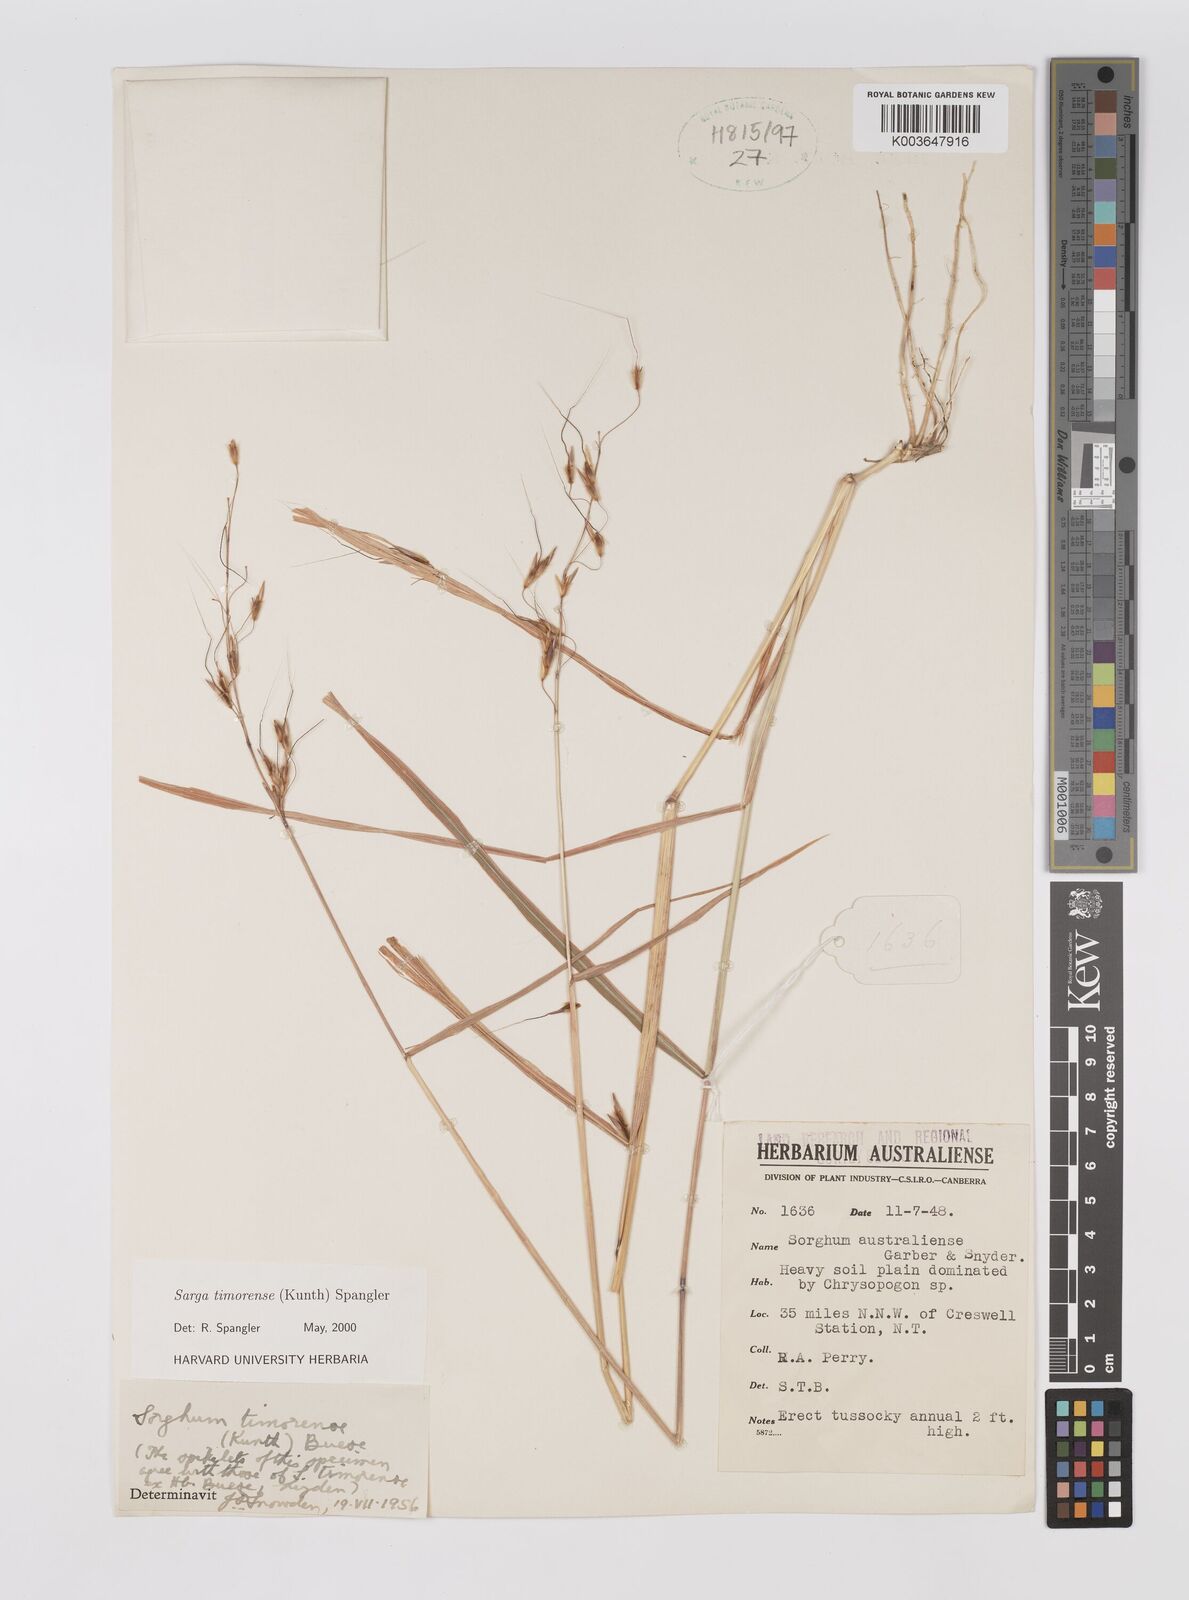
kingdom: Plantae
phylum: Tracheophyta
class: Liliopsida
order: Poales
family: Poaceae
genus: Sarga
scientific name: Sarga timorensis
